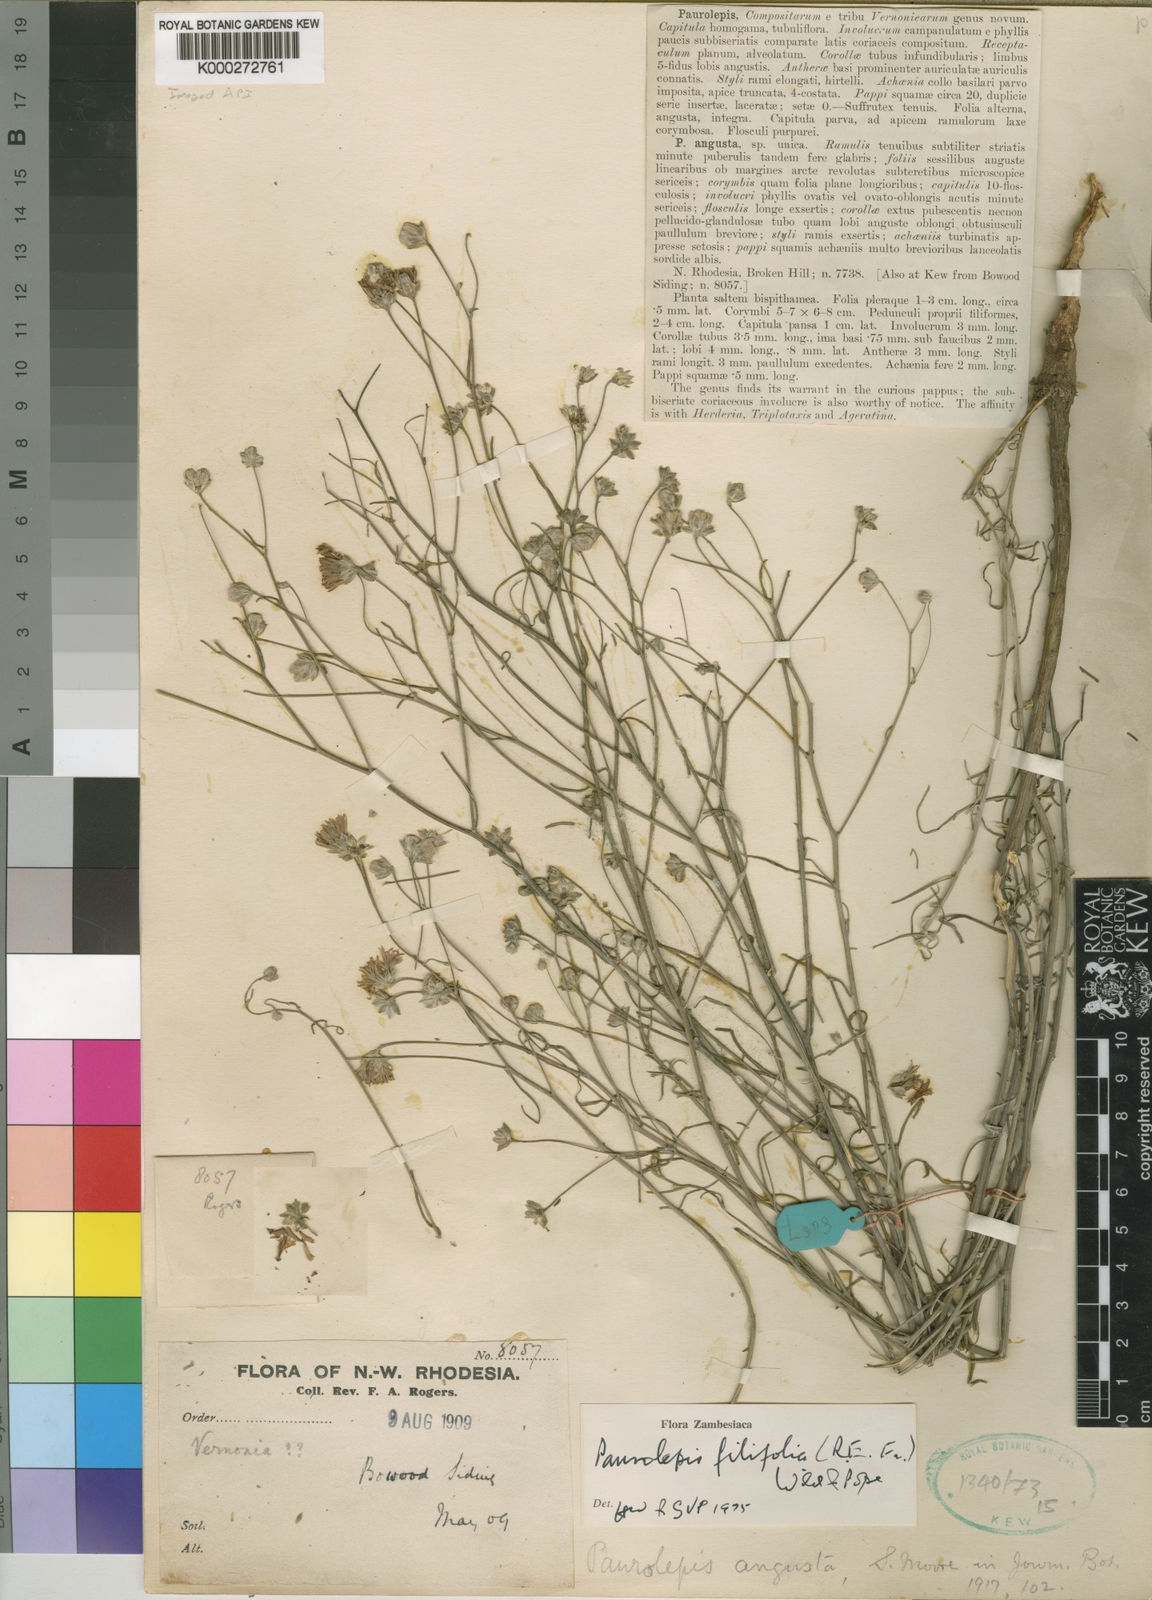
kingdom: Plantae
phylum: Tracheophyta
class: Magnoliopsida
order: Asterales
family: Asteraceae
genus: Paurolepis
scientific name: Paurolepis filifolia
